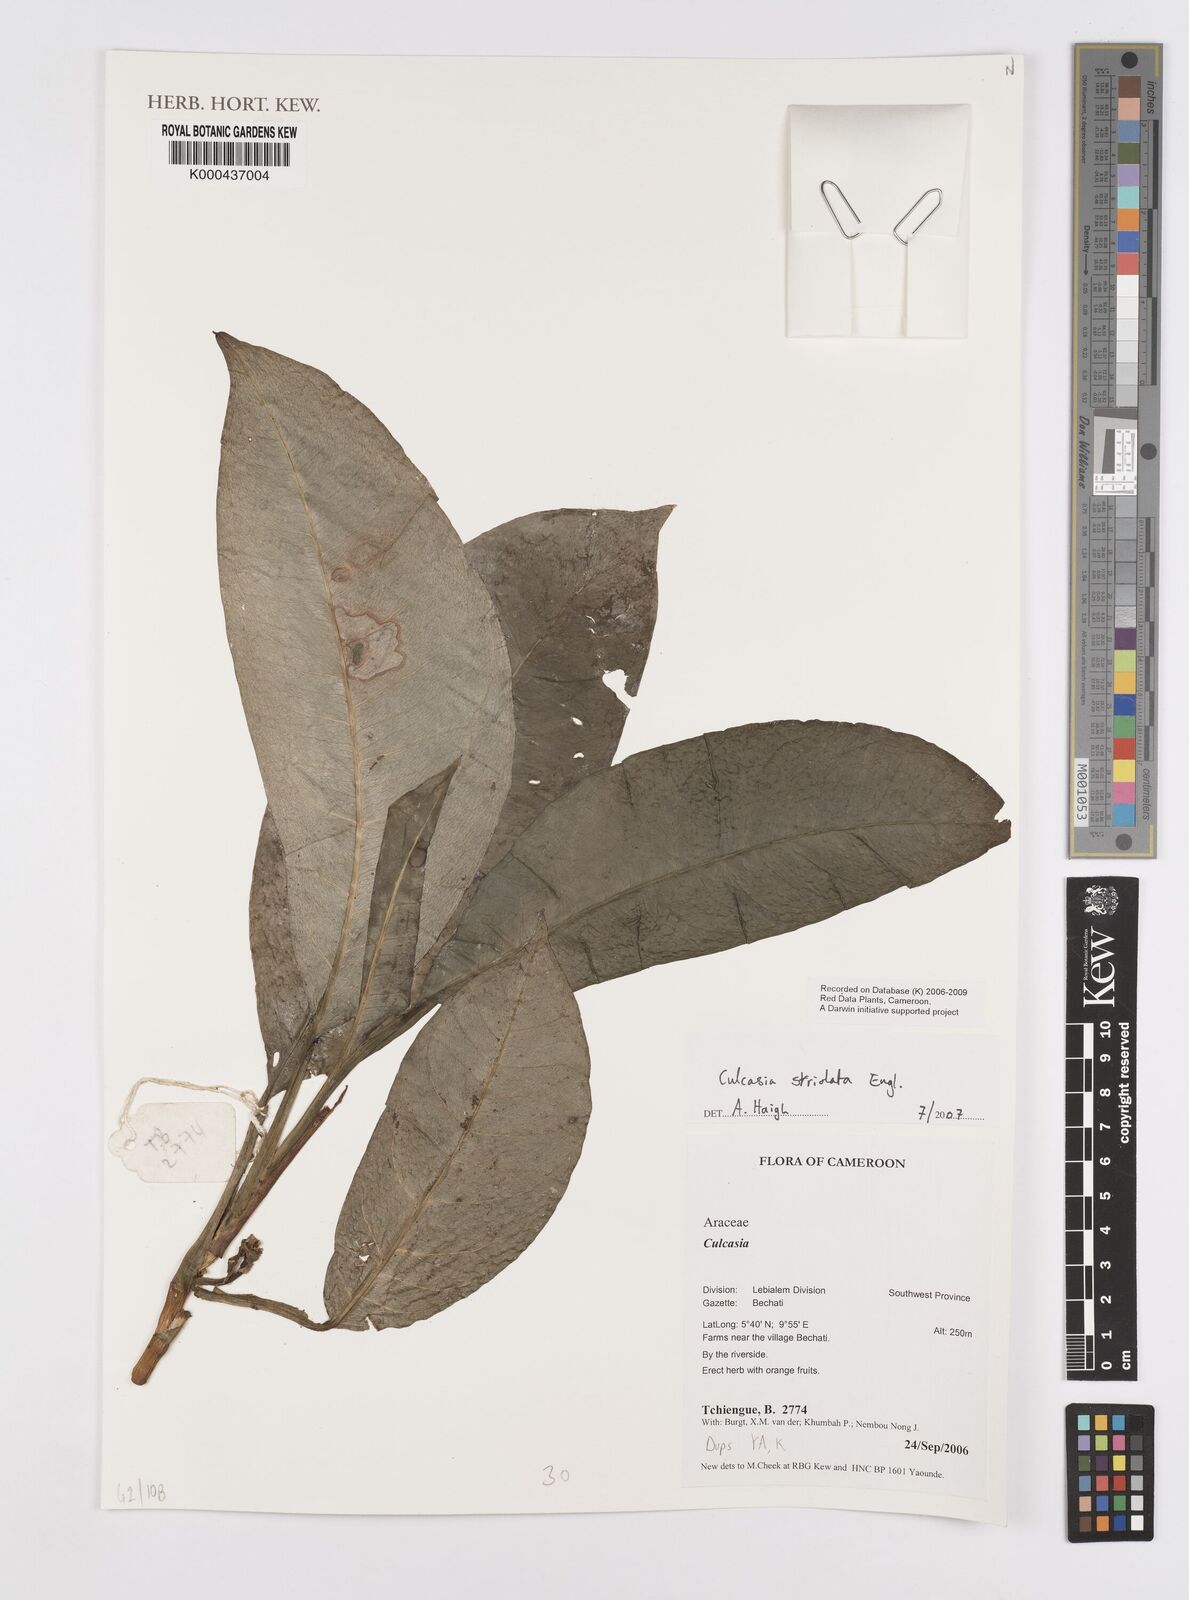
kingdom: Plantae
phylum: Tracheophyta
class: Liliopsida
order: Alismatales
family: Araceae
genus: Culcasia
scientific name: Culcasia striolata
